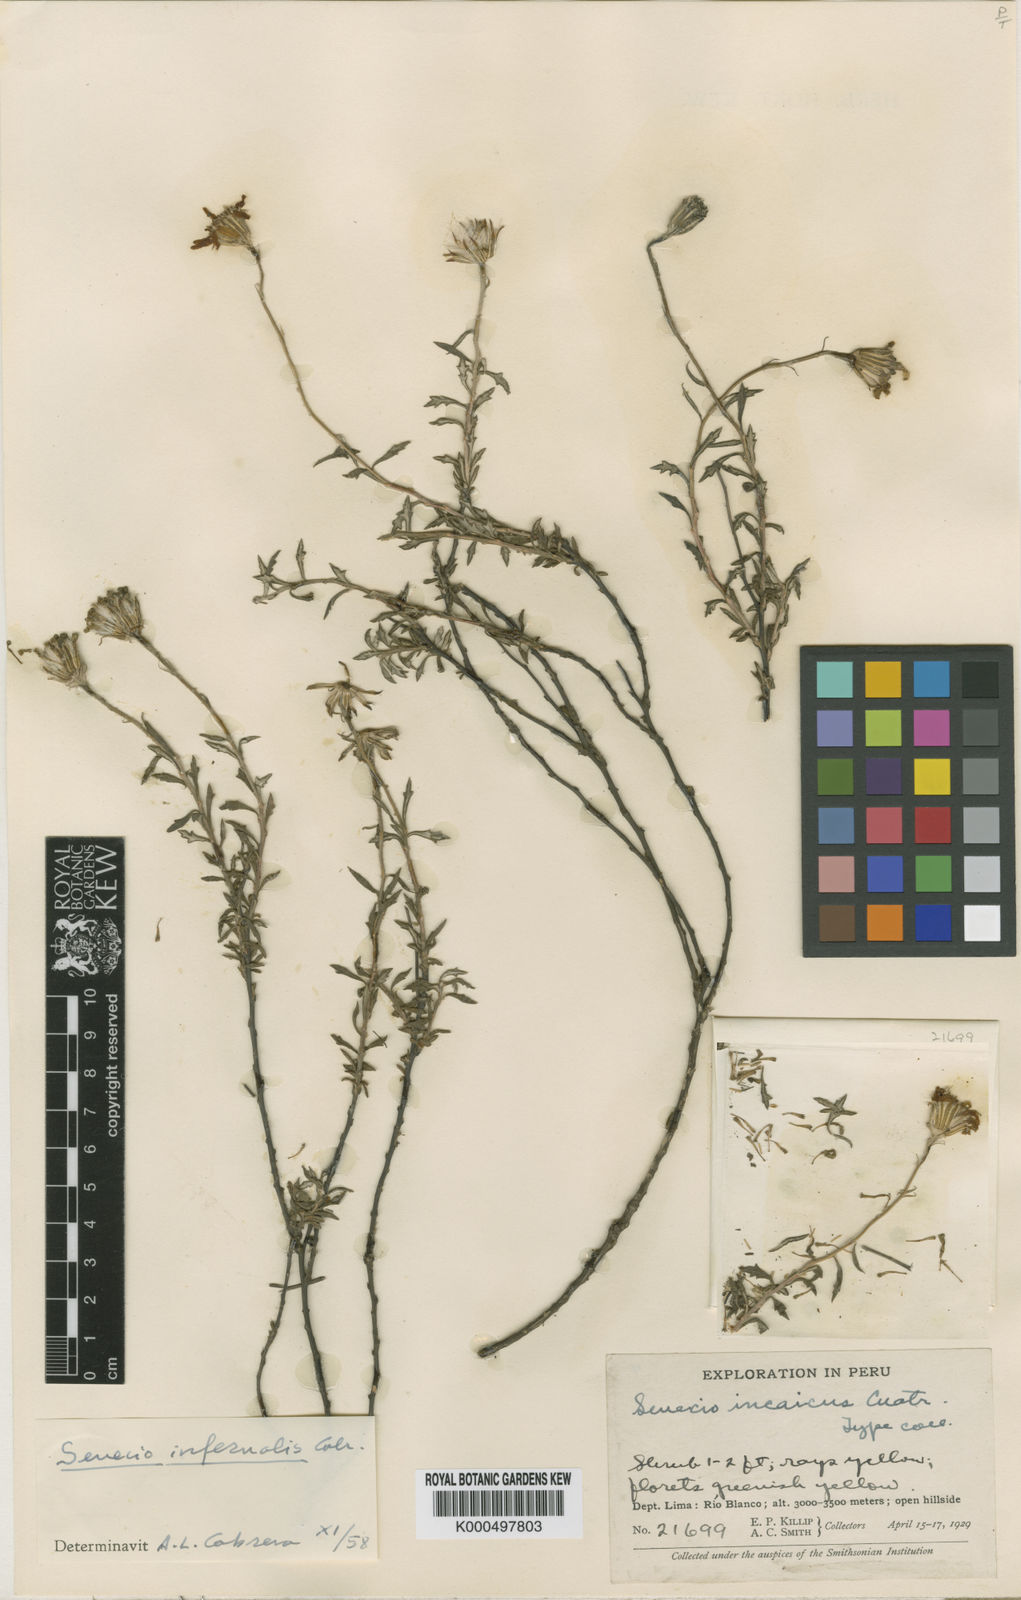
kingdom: Plantae
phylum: Tracheophyta
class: Magnoliopsida
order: Asterales
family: Asteraceae
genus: Lomanthus
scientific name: Lomanthus infernalis
